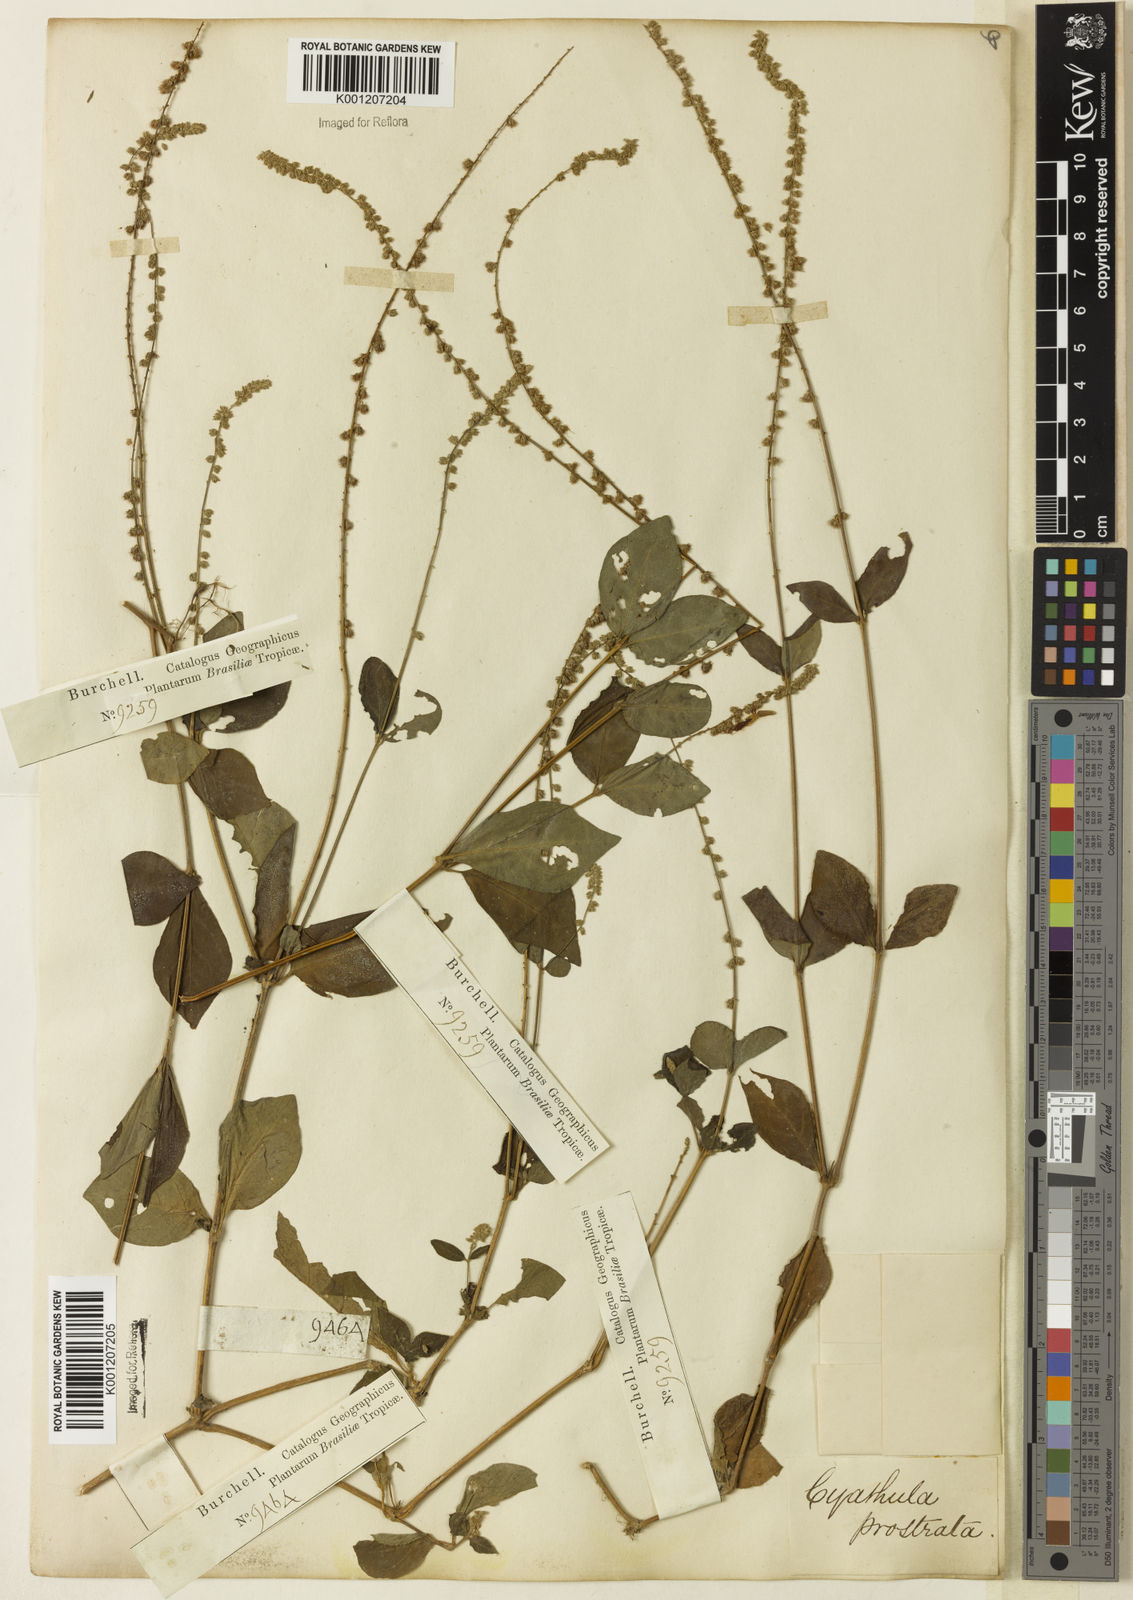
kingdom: Plantae
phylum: Tracheophyta
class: Magnoliopsida
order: Caryophyllales
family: Amaranthaceae
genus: Cyathula
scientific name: Cyathula prostrata
